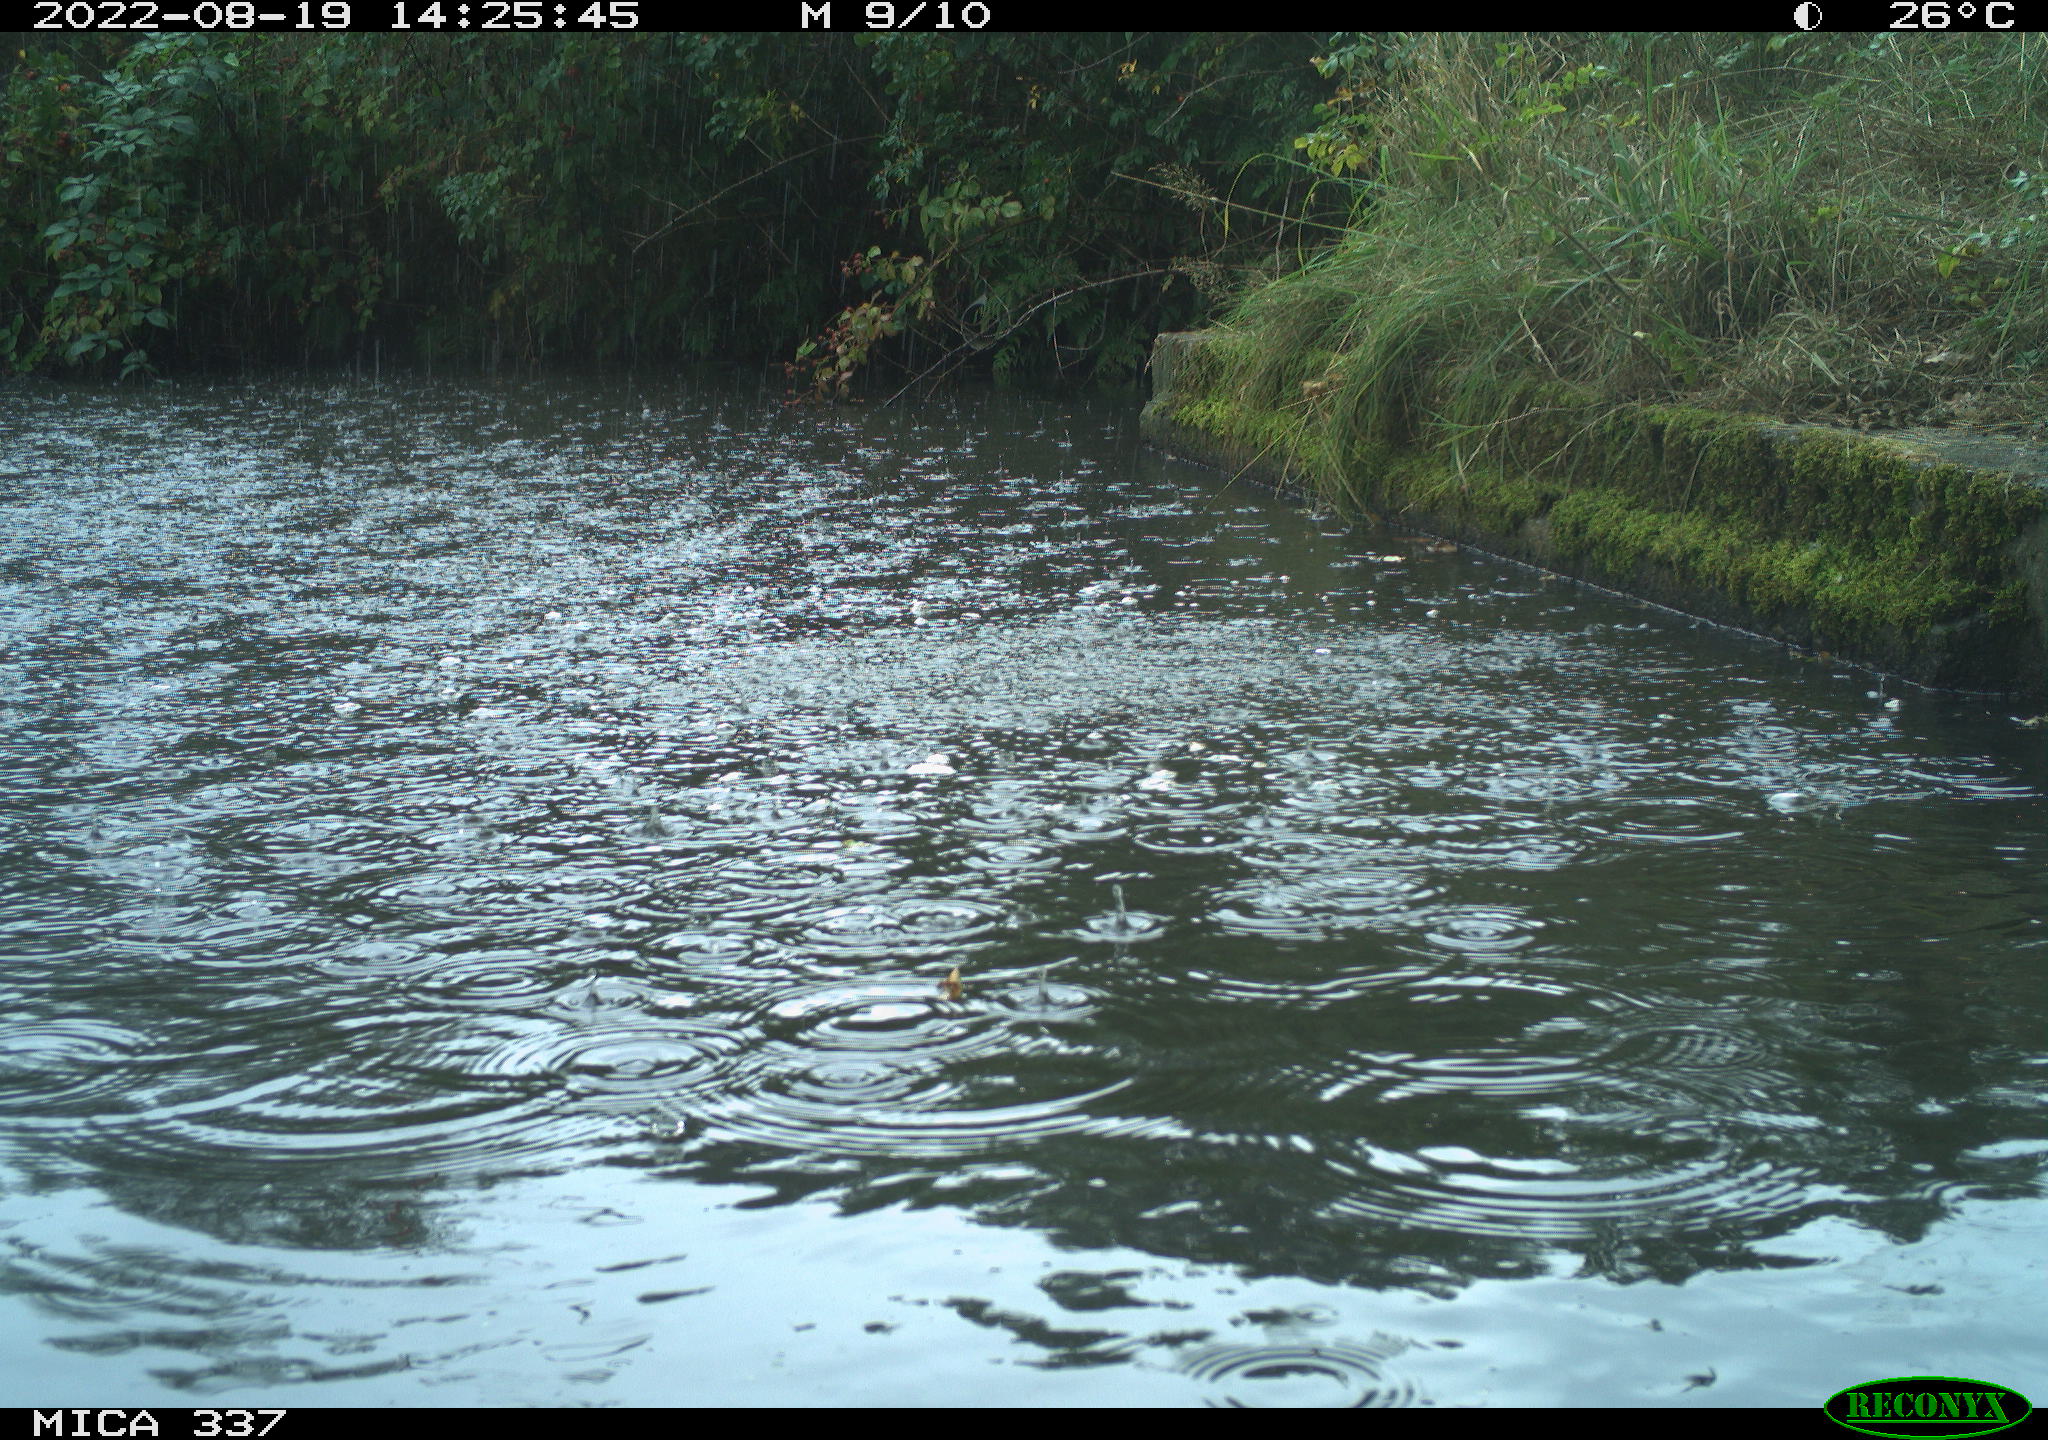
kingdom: Animalia
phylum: Chordata
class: Aves
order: Anseriformes
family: Anatidae
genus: Anas
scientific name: Anas platyrhynchos
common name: Mallard
